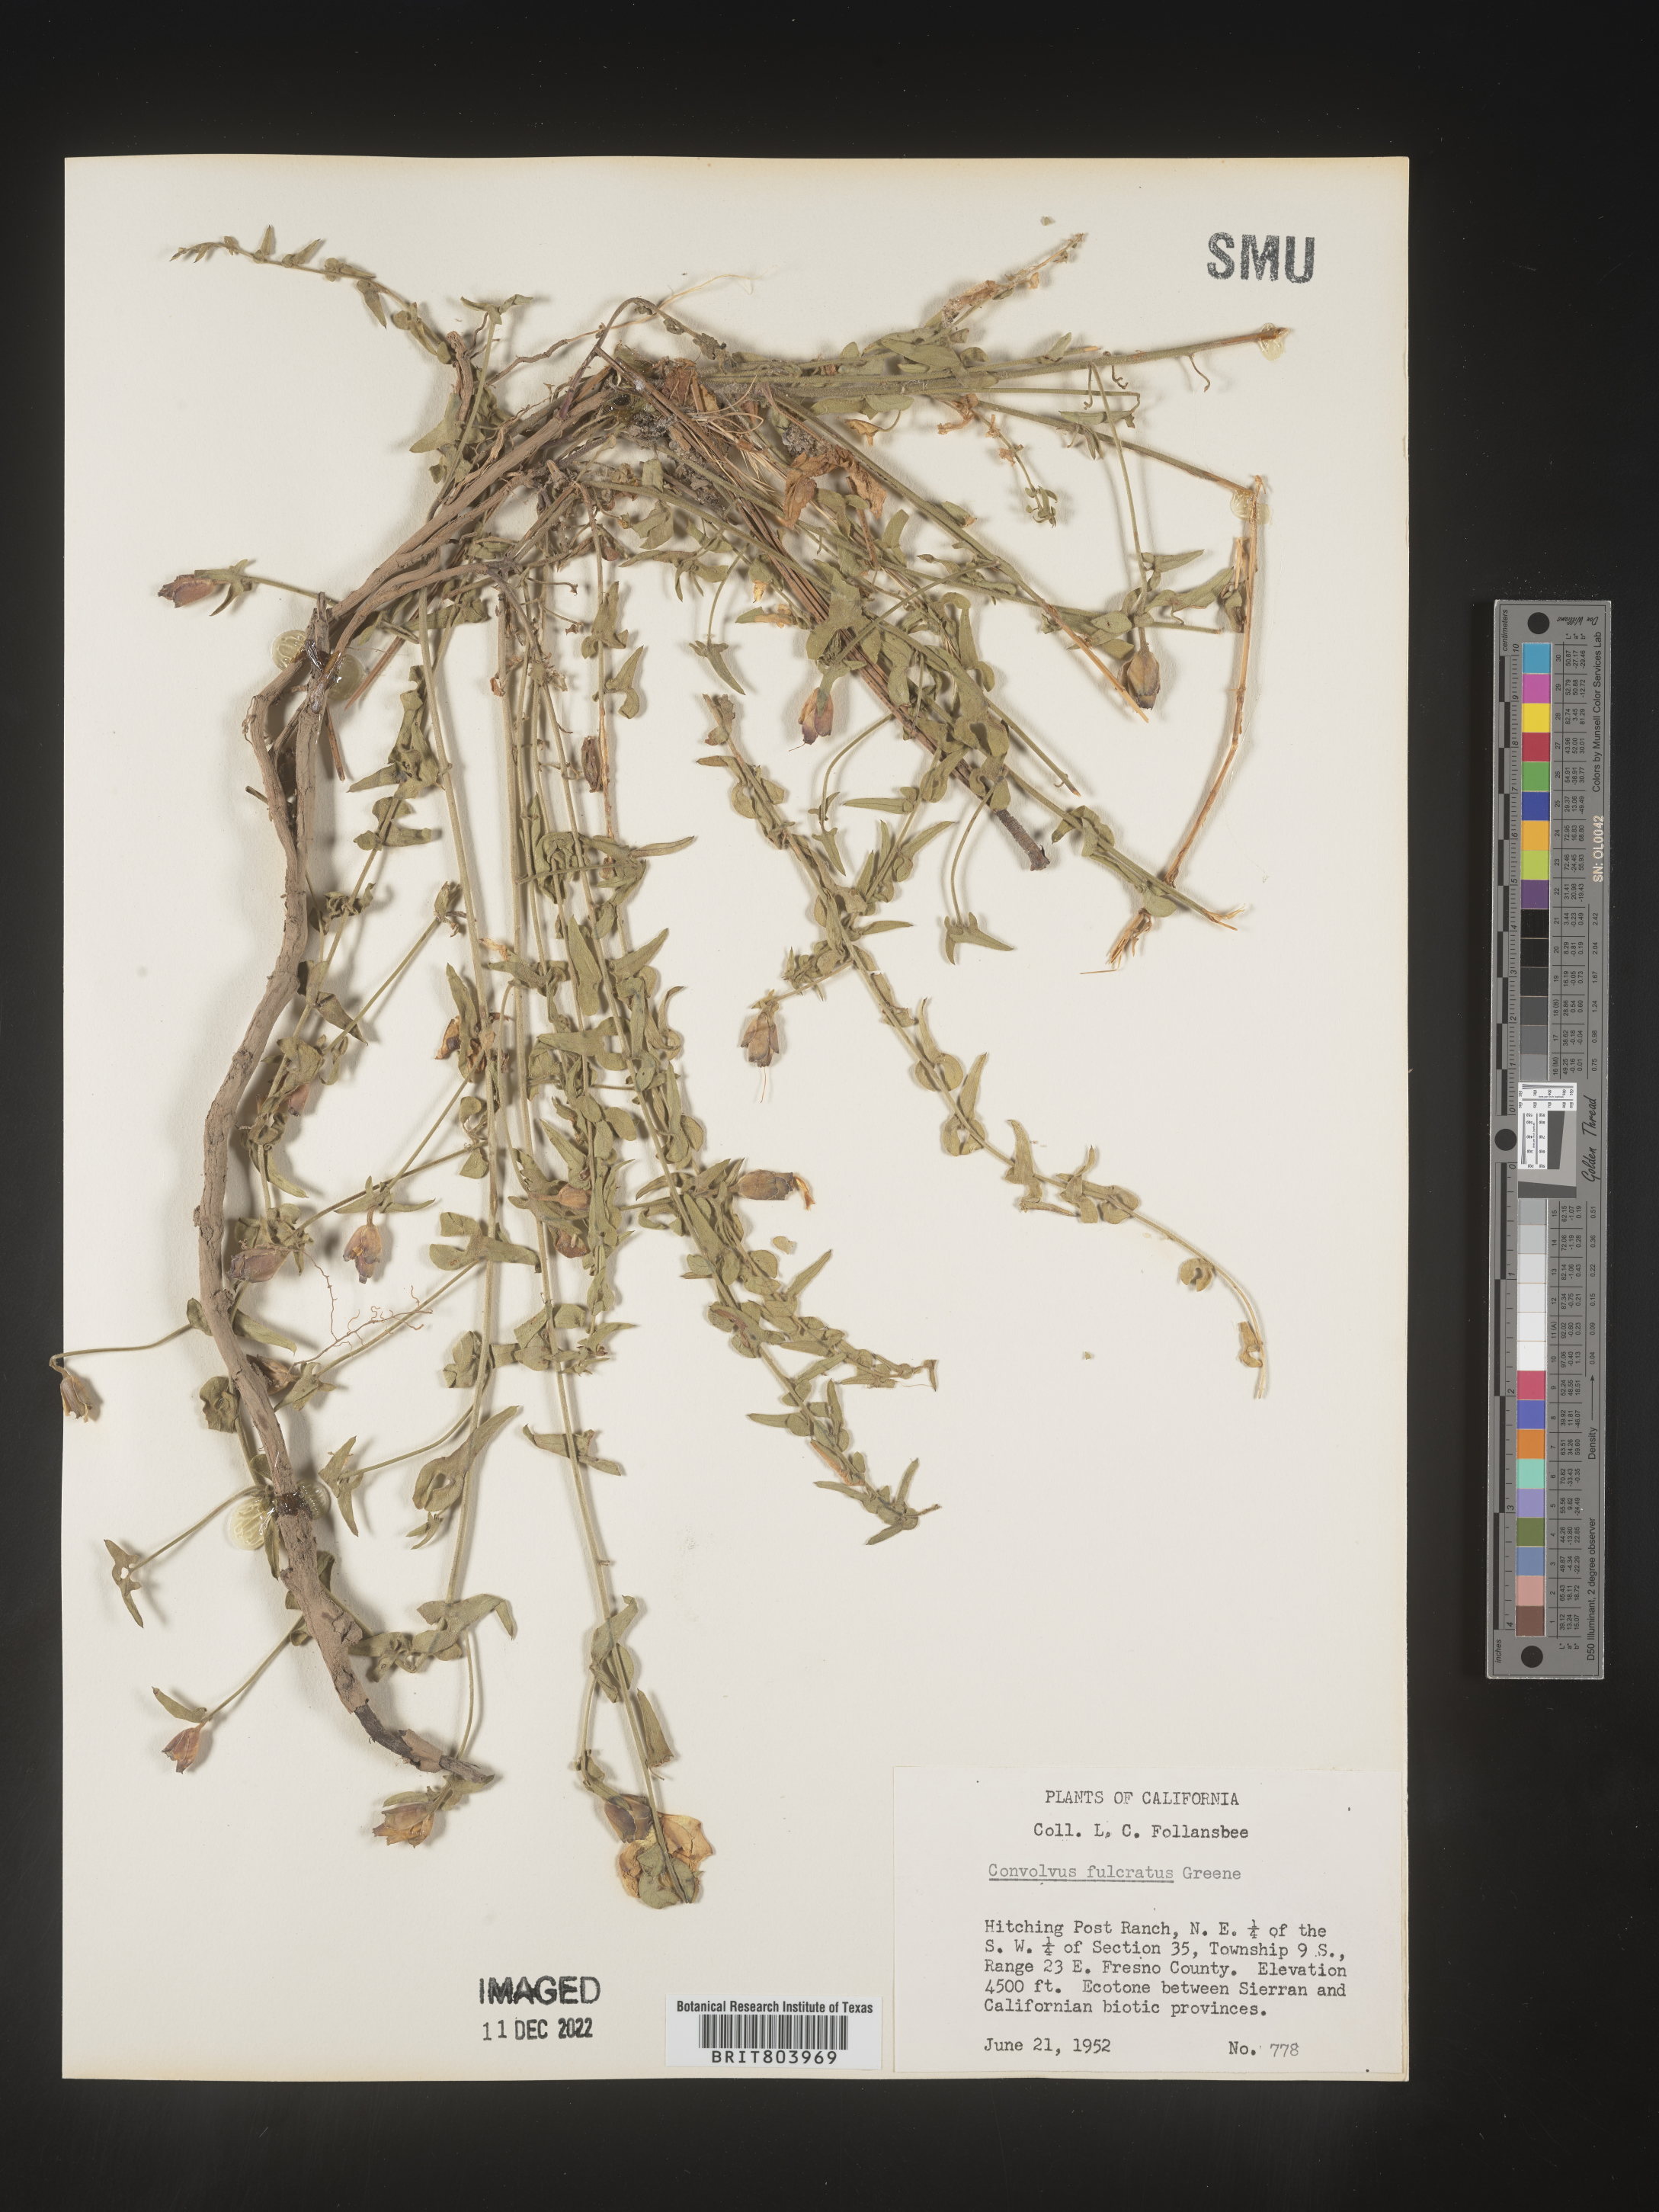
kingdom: Plantae
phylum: Tracheophyta
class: Magnoliopsida
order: Solanales
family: Convolvulaceae
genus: Calystegia
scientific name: Calystegia
